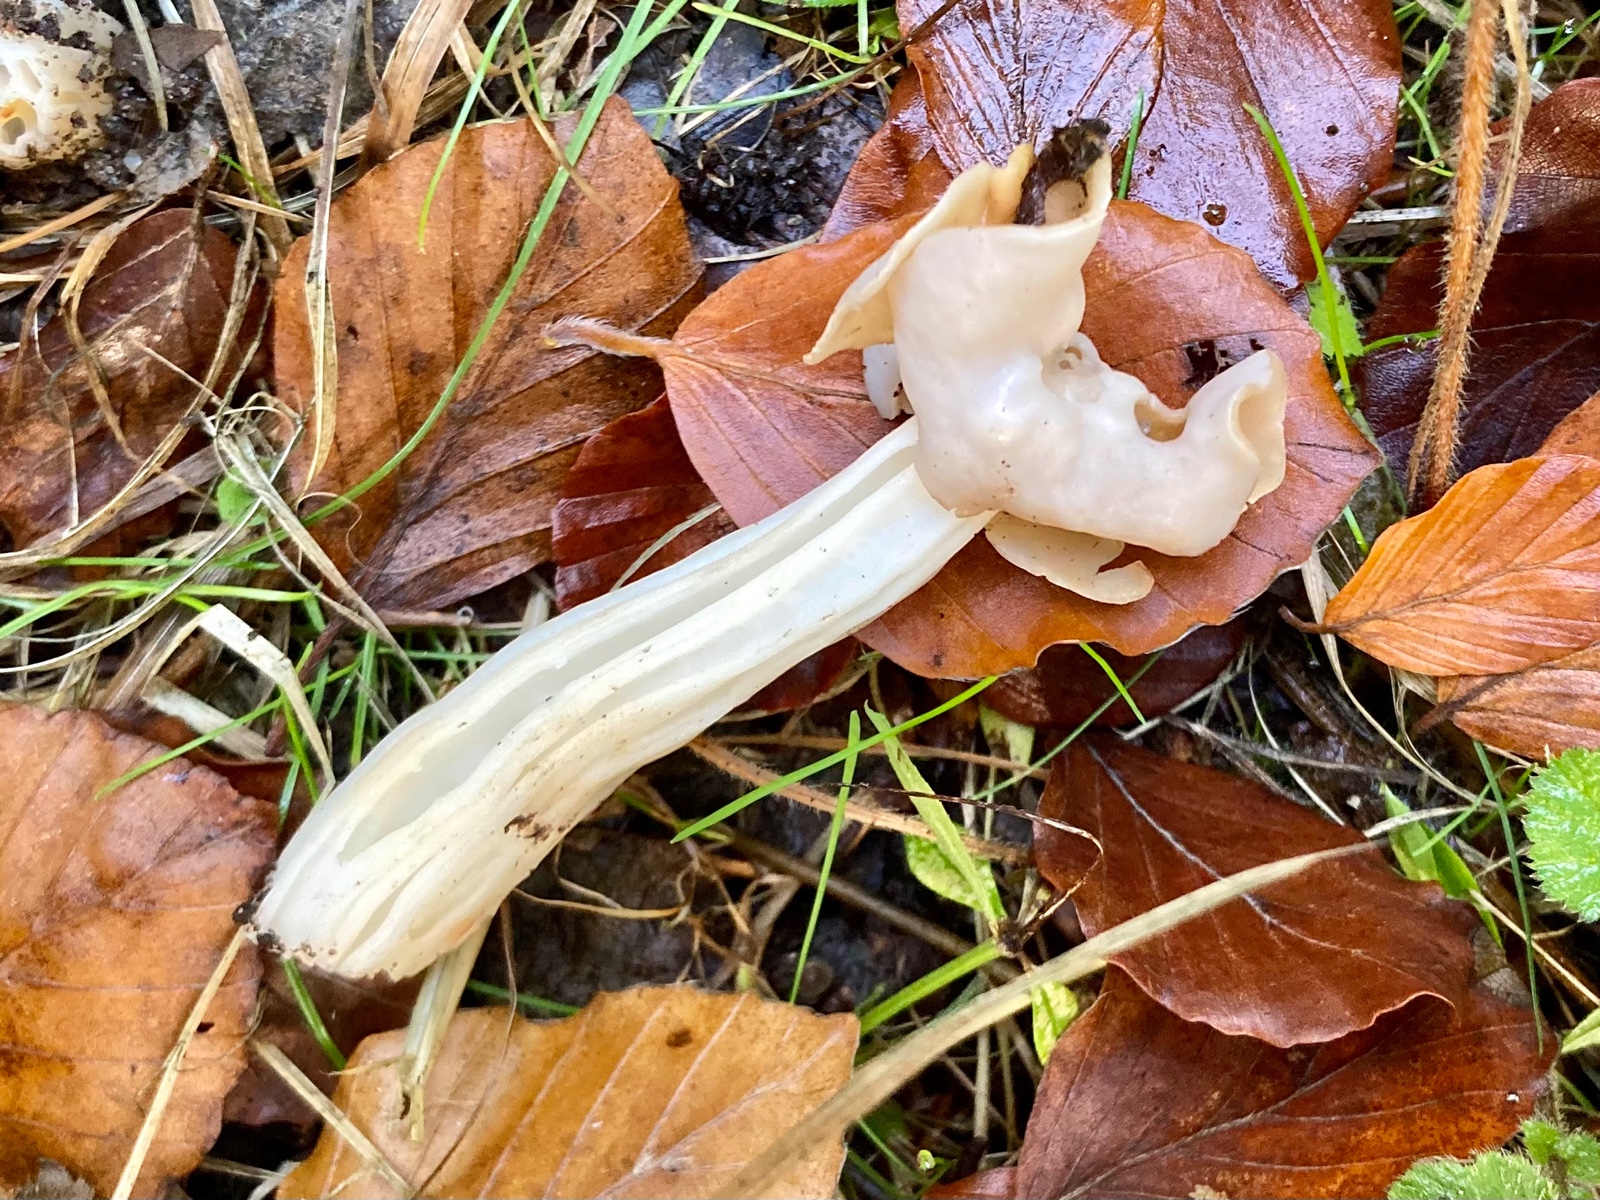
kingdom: Fungi
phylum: Ascomycota
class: Pezizomycetes
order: Pezizales
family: Helvellaceae
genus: Helvella
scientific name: Helvella crispa
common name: kruset foldhat
